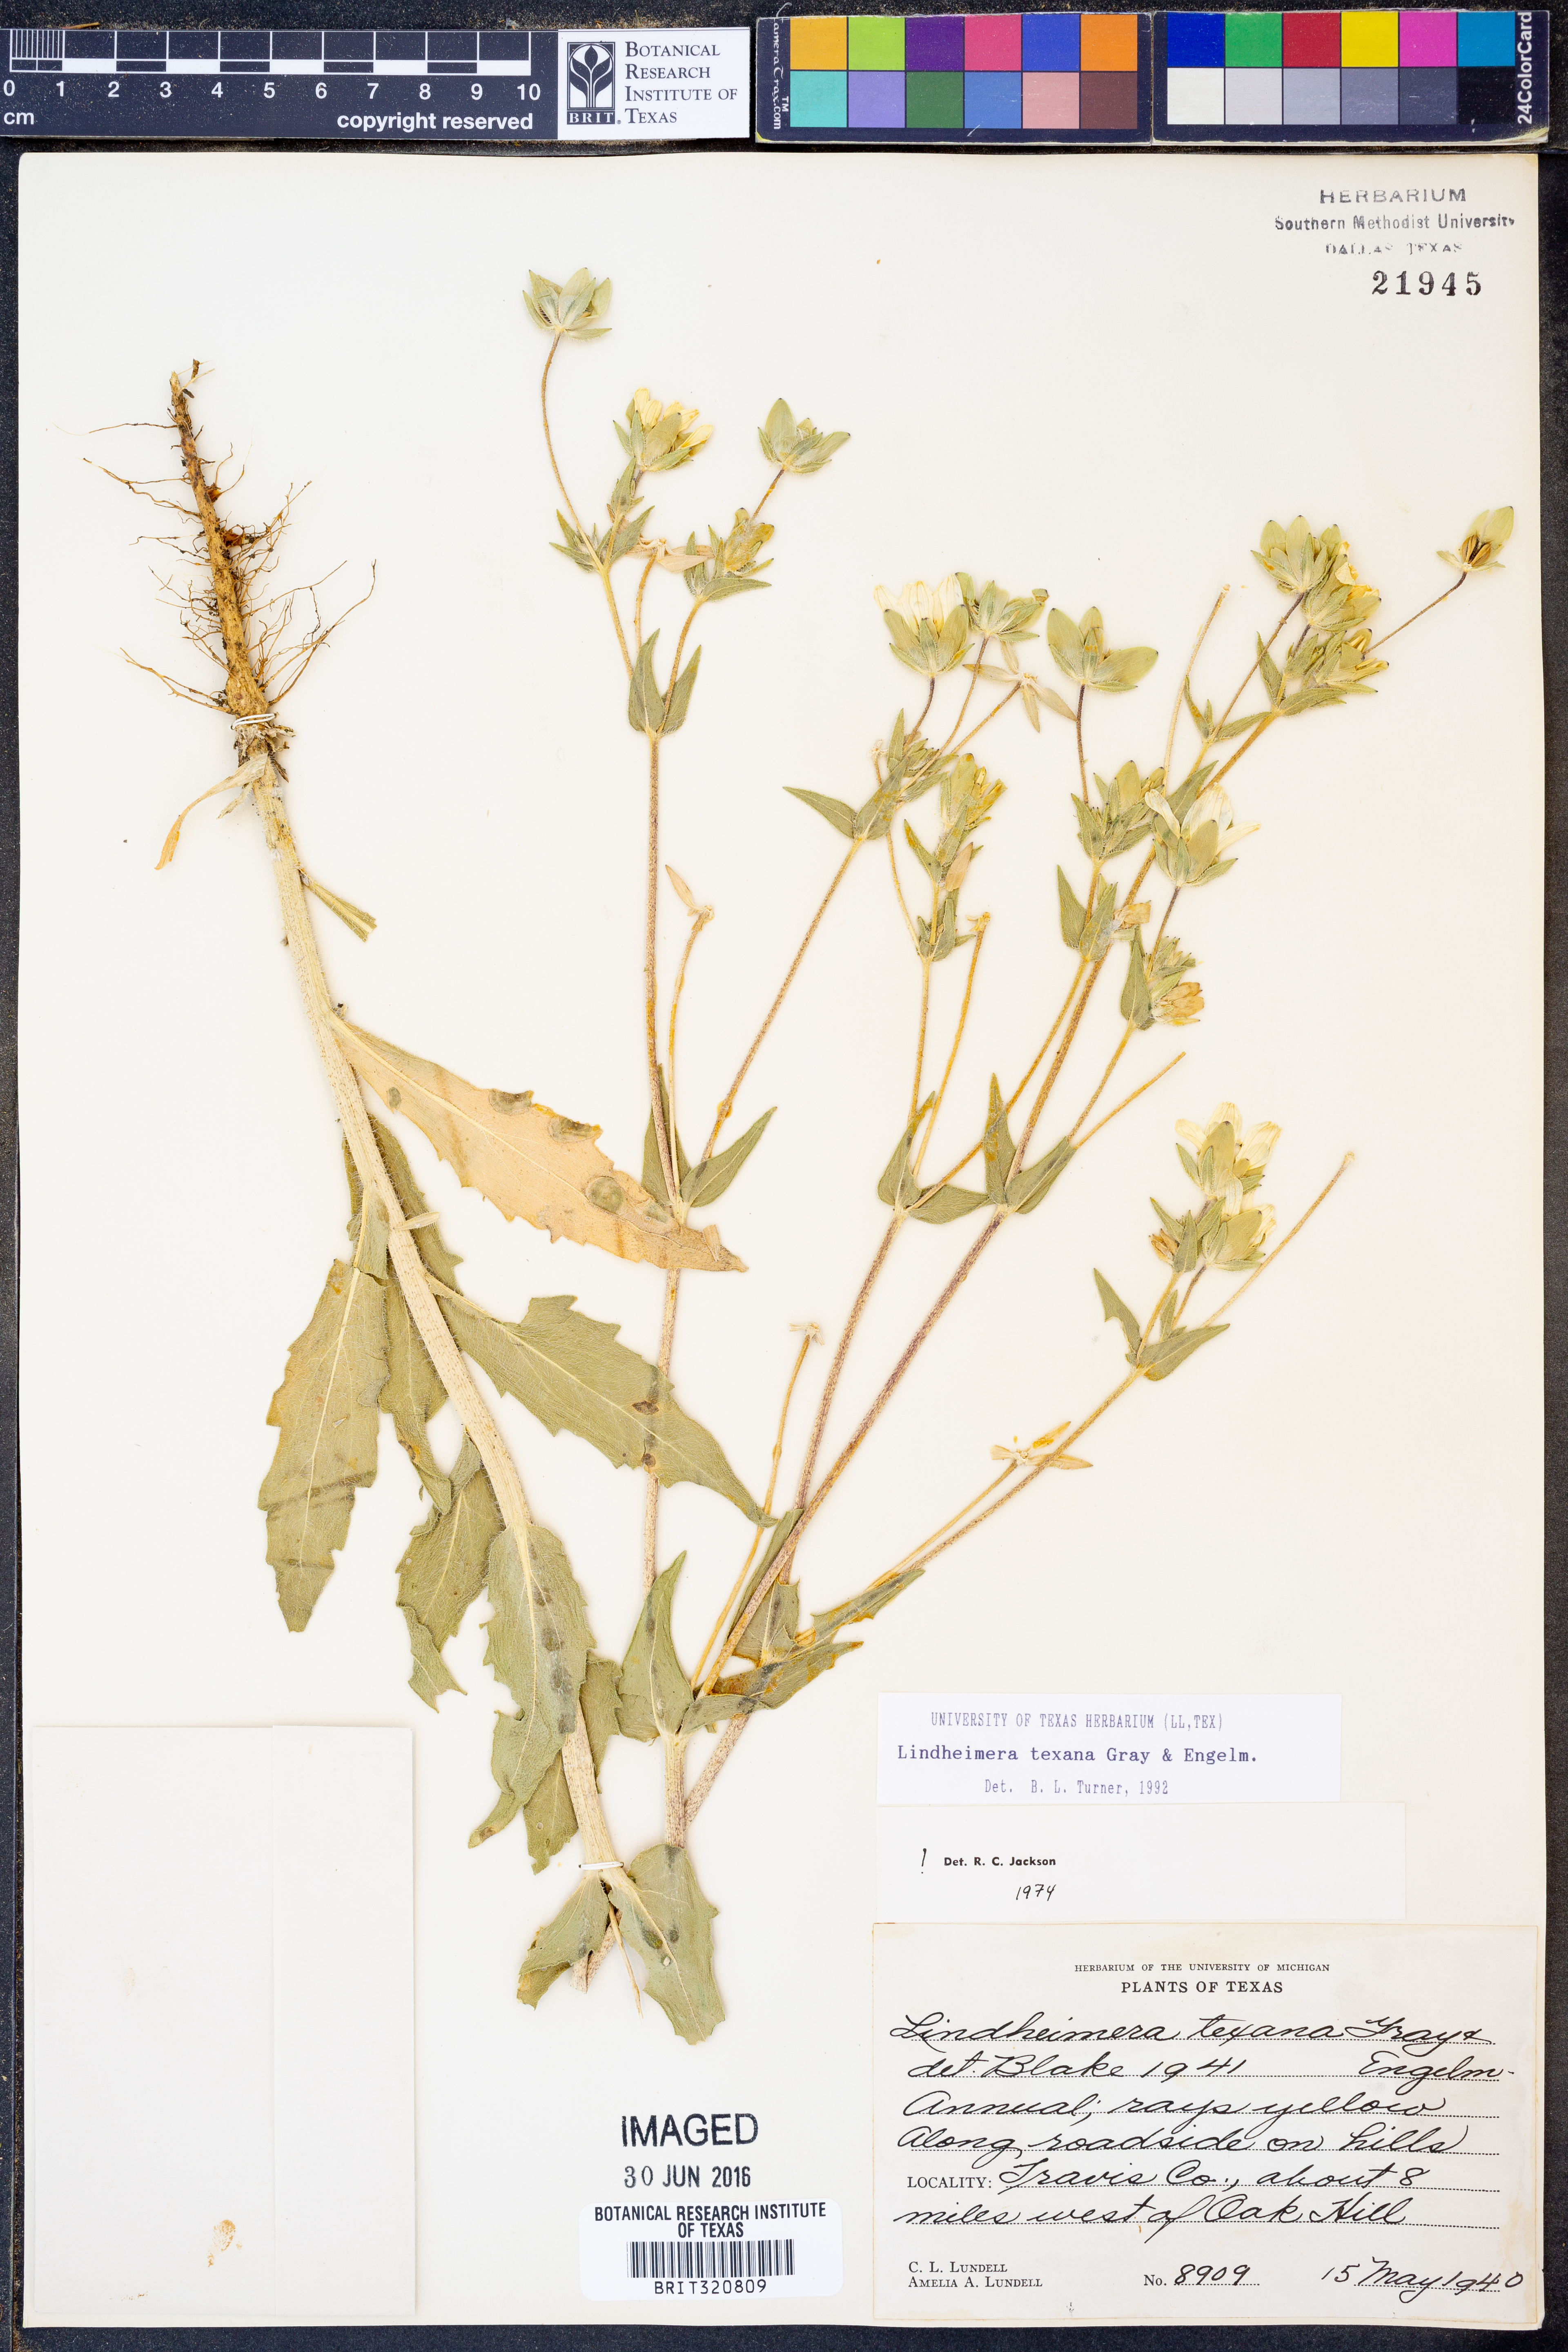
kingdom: Plantae
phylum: Tracheophyta
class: Magnoliopsida
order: Asterales
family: Asteraceae
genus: Lindheimera
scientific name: Lindheimera texana
